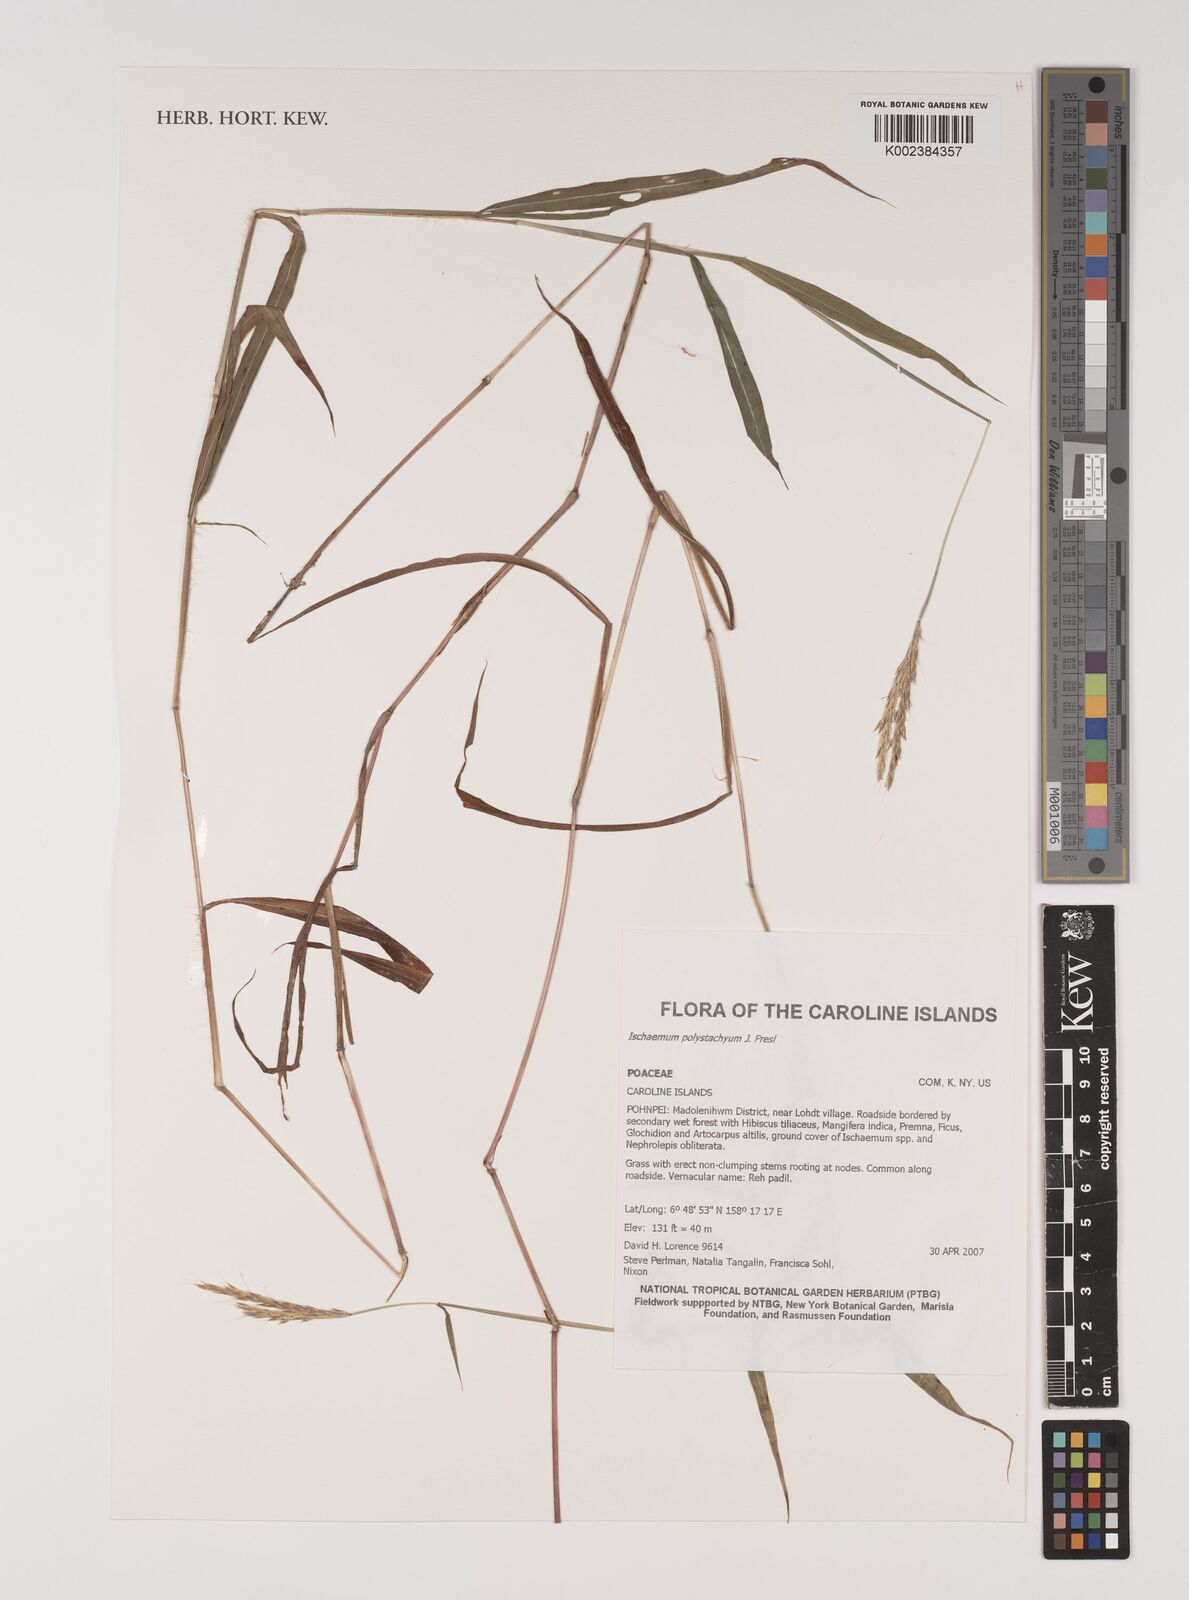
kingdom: Plantae
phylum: Tracheophyta
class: Liliopsida
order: Poales
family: Poaceae
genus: Ischaemum
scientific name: Ischaemum polystachyum
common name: Paddle grass
